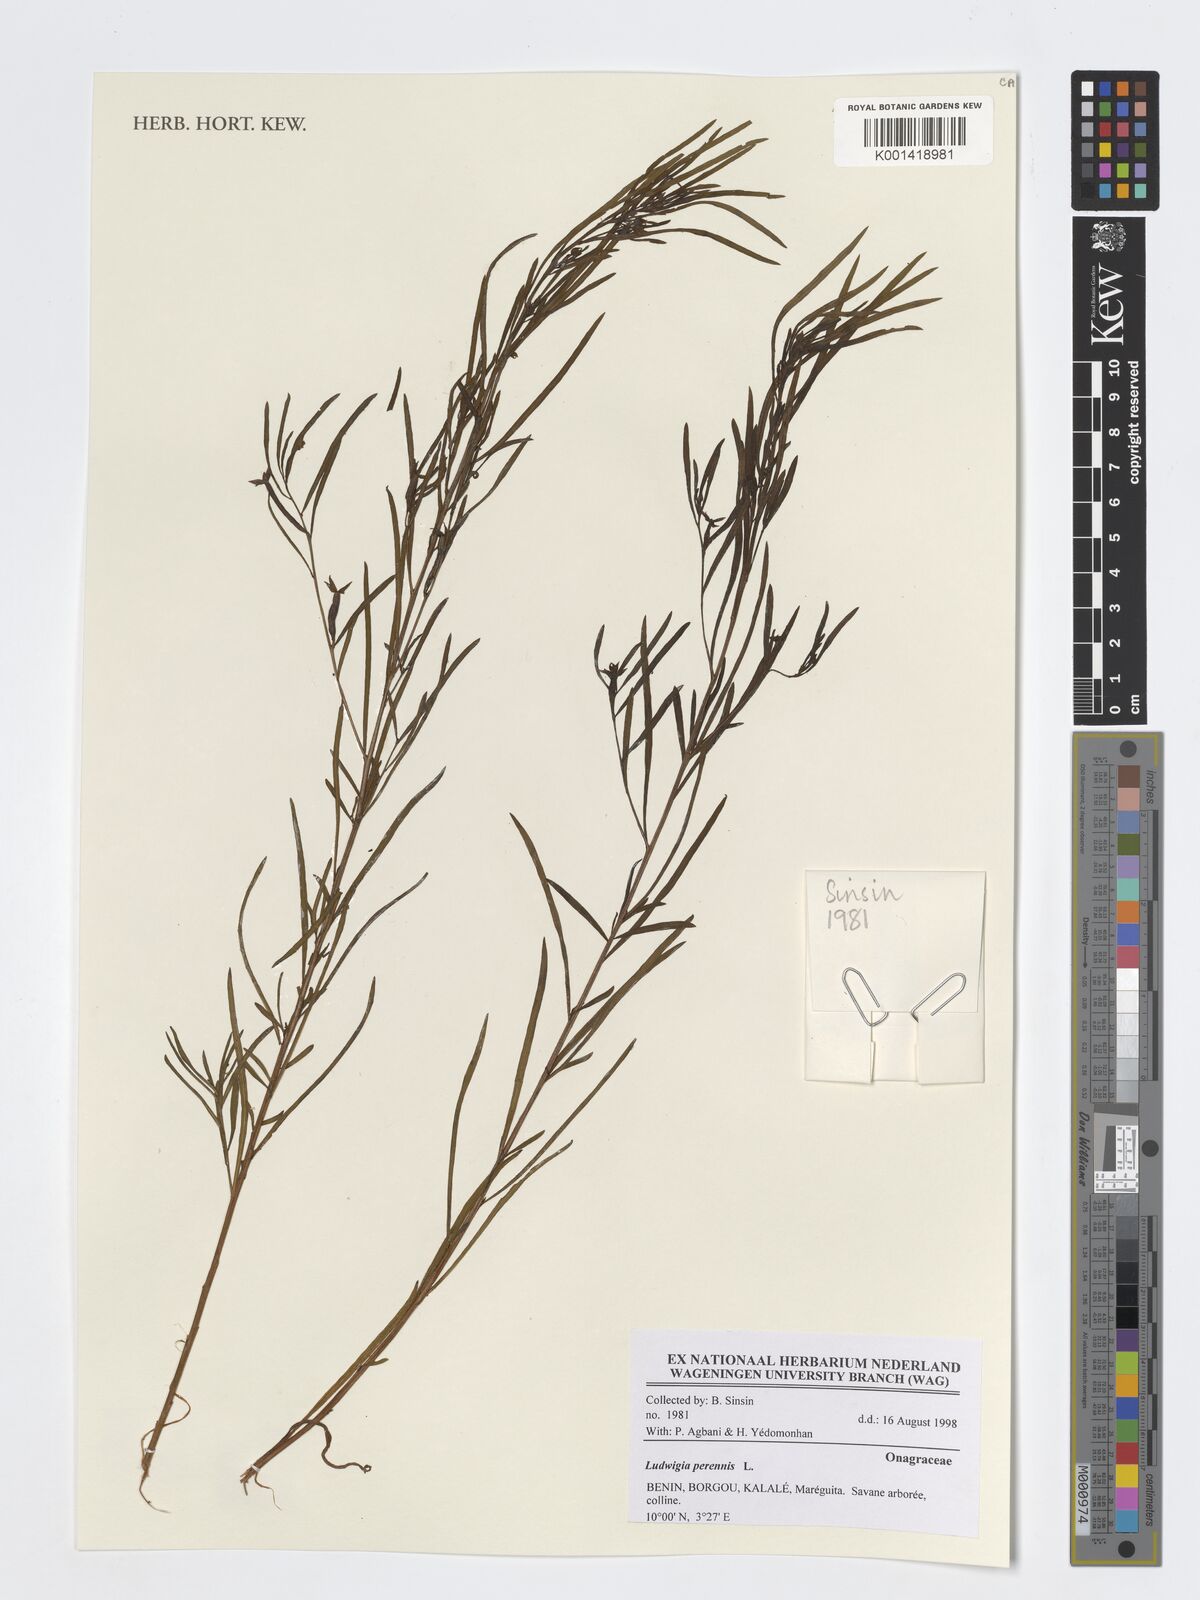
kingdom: Plantae
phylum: Tracheophyta
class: Magnoliopsida
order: Myrtales
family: Onagraceae
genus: Ludwigia
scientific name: Ludwigia perennis
